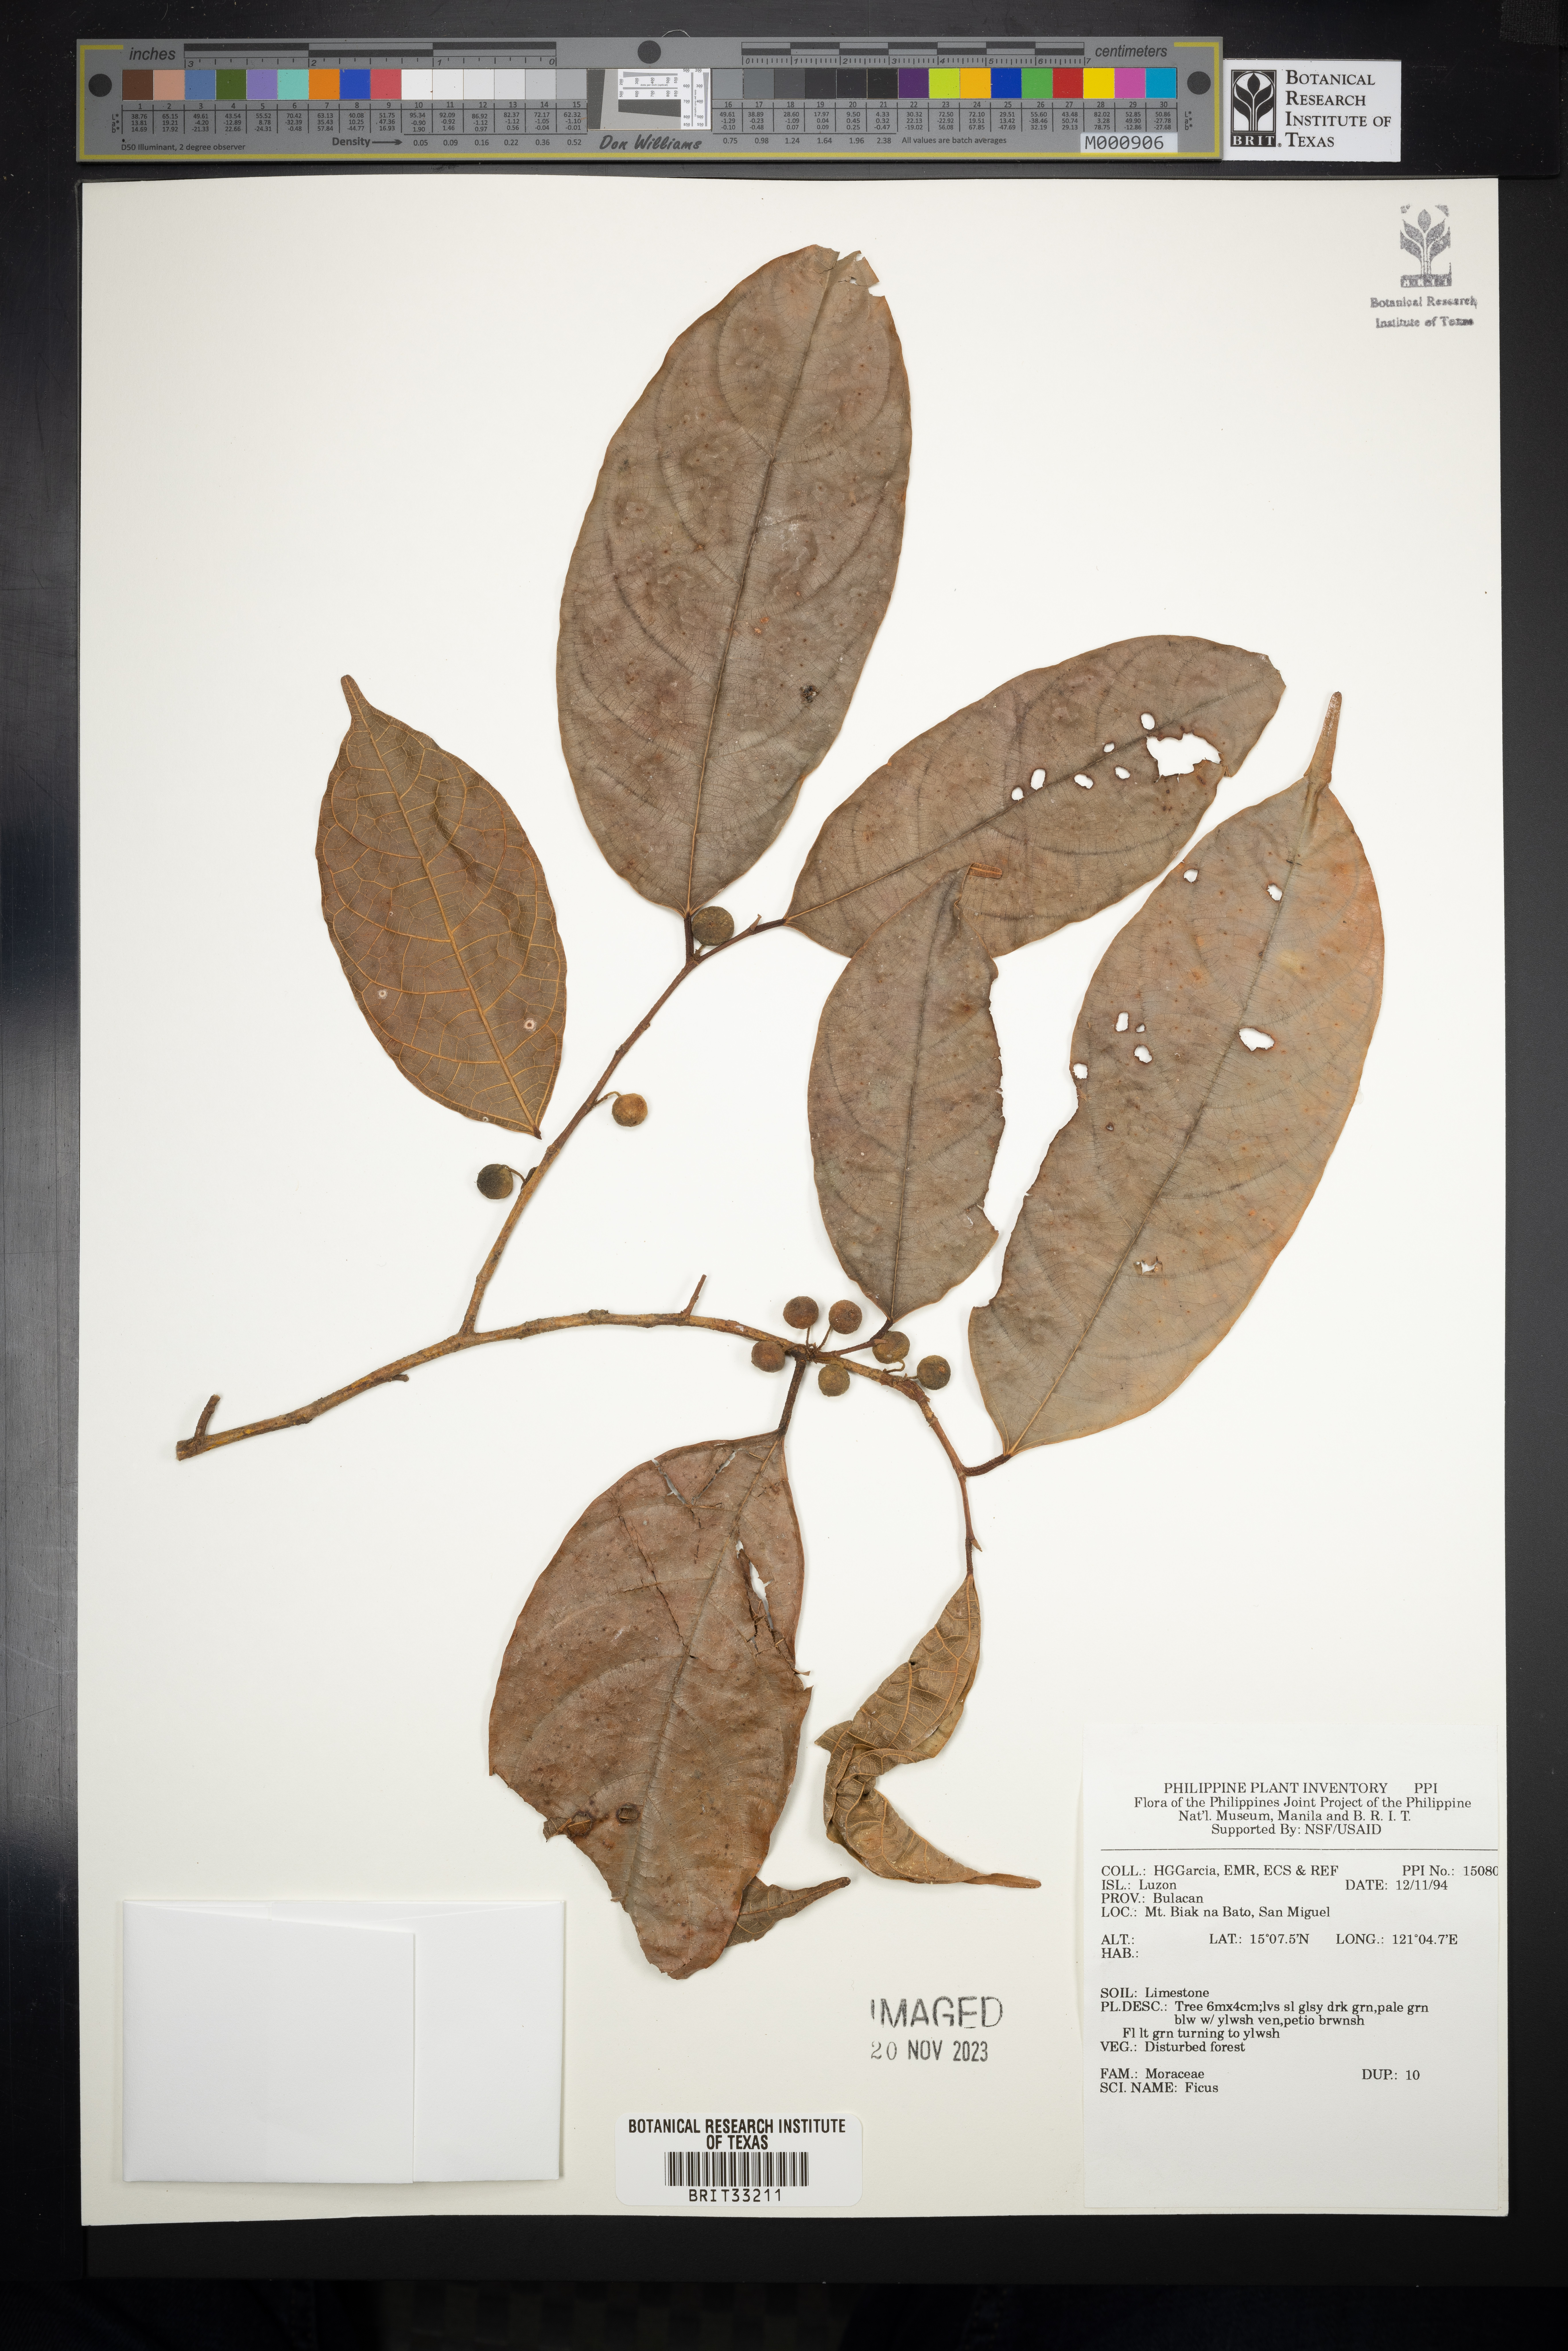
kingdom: Plantae
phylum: Tracheophyta
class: Magnoliopsida
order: Rosales
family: Moraceae
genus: Ficus
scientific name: Ficus
